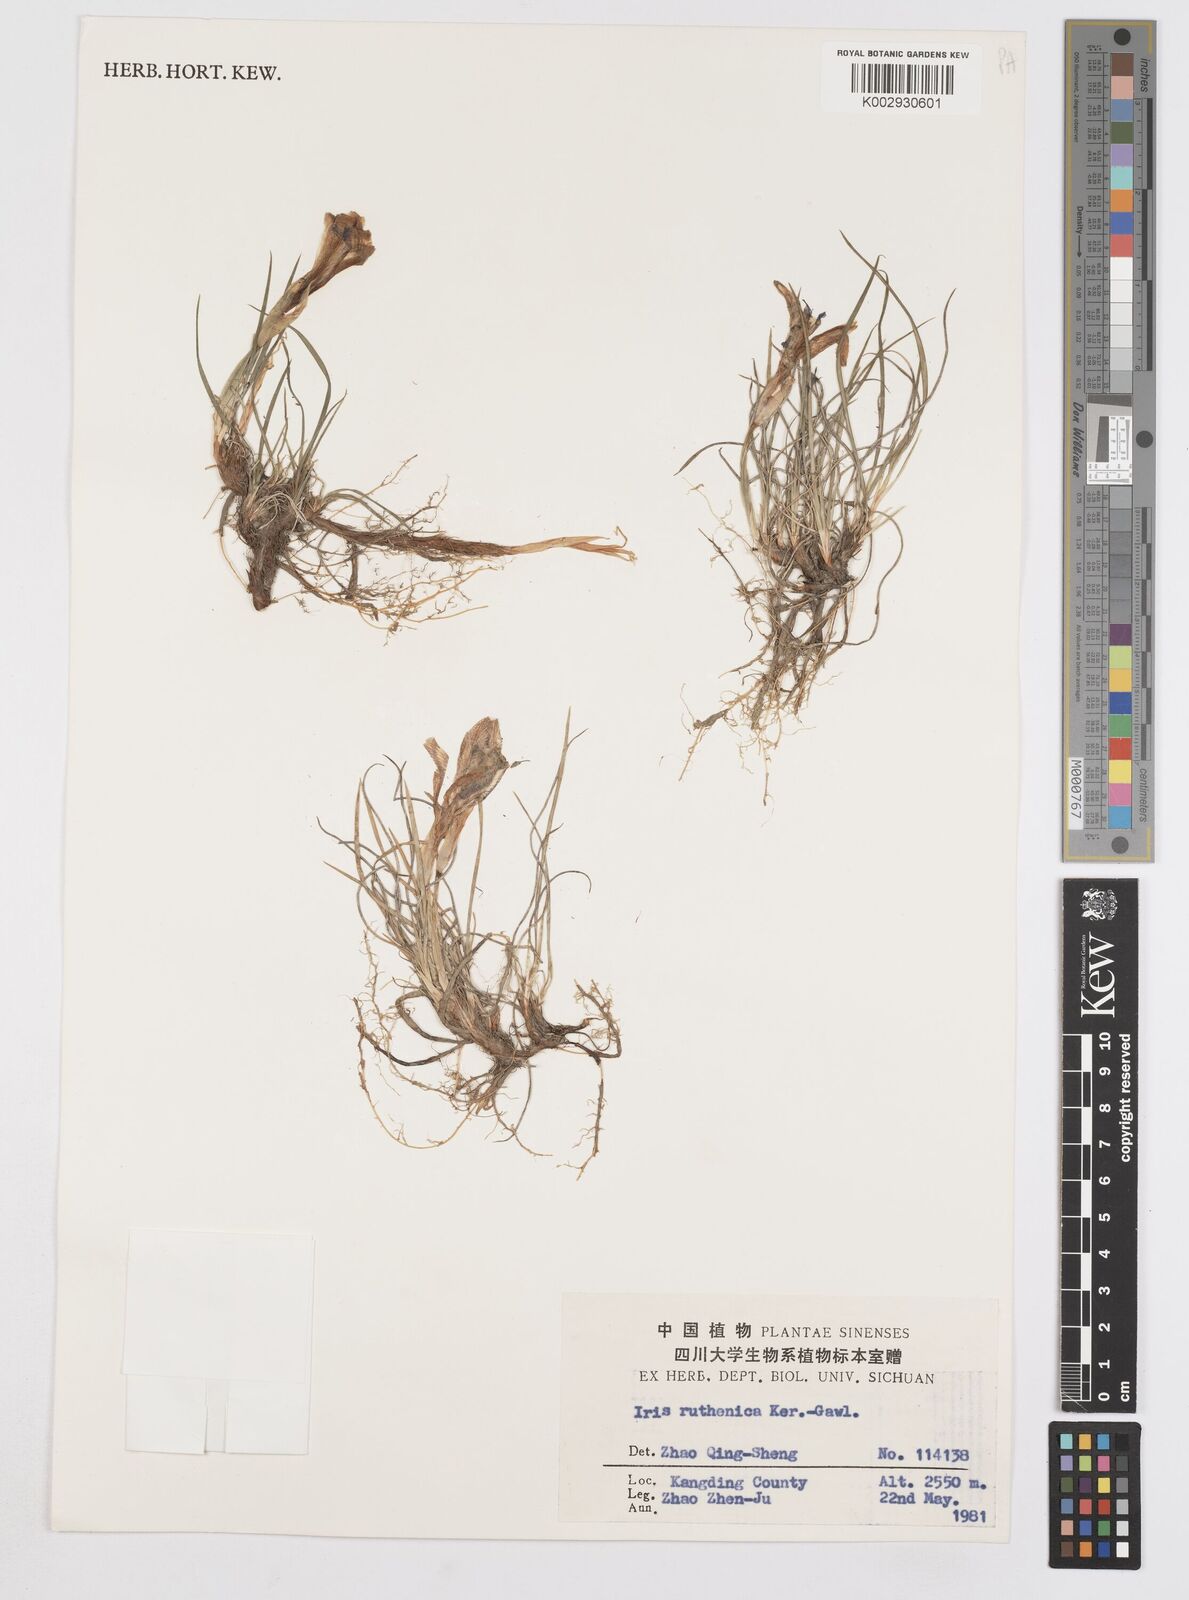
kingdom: Plantae
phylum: Tracheophyta
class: Liliopsida
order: Asparagales
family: Iridaceae
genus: Iris
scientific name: Iris ruthenica
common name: Purple-bract iris
